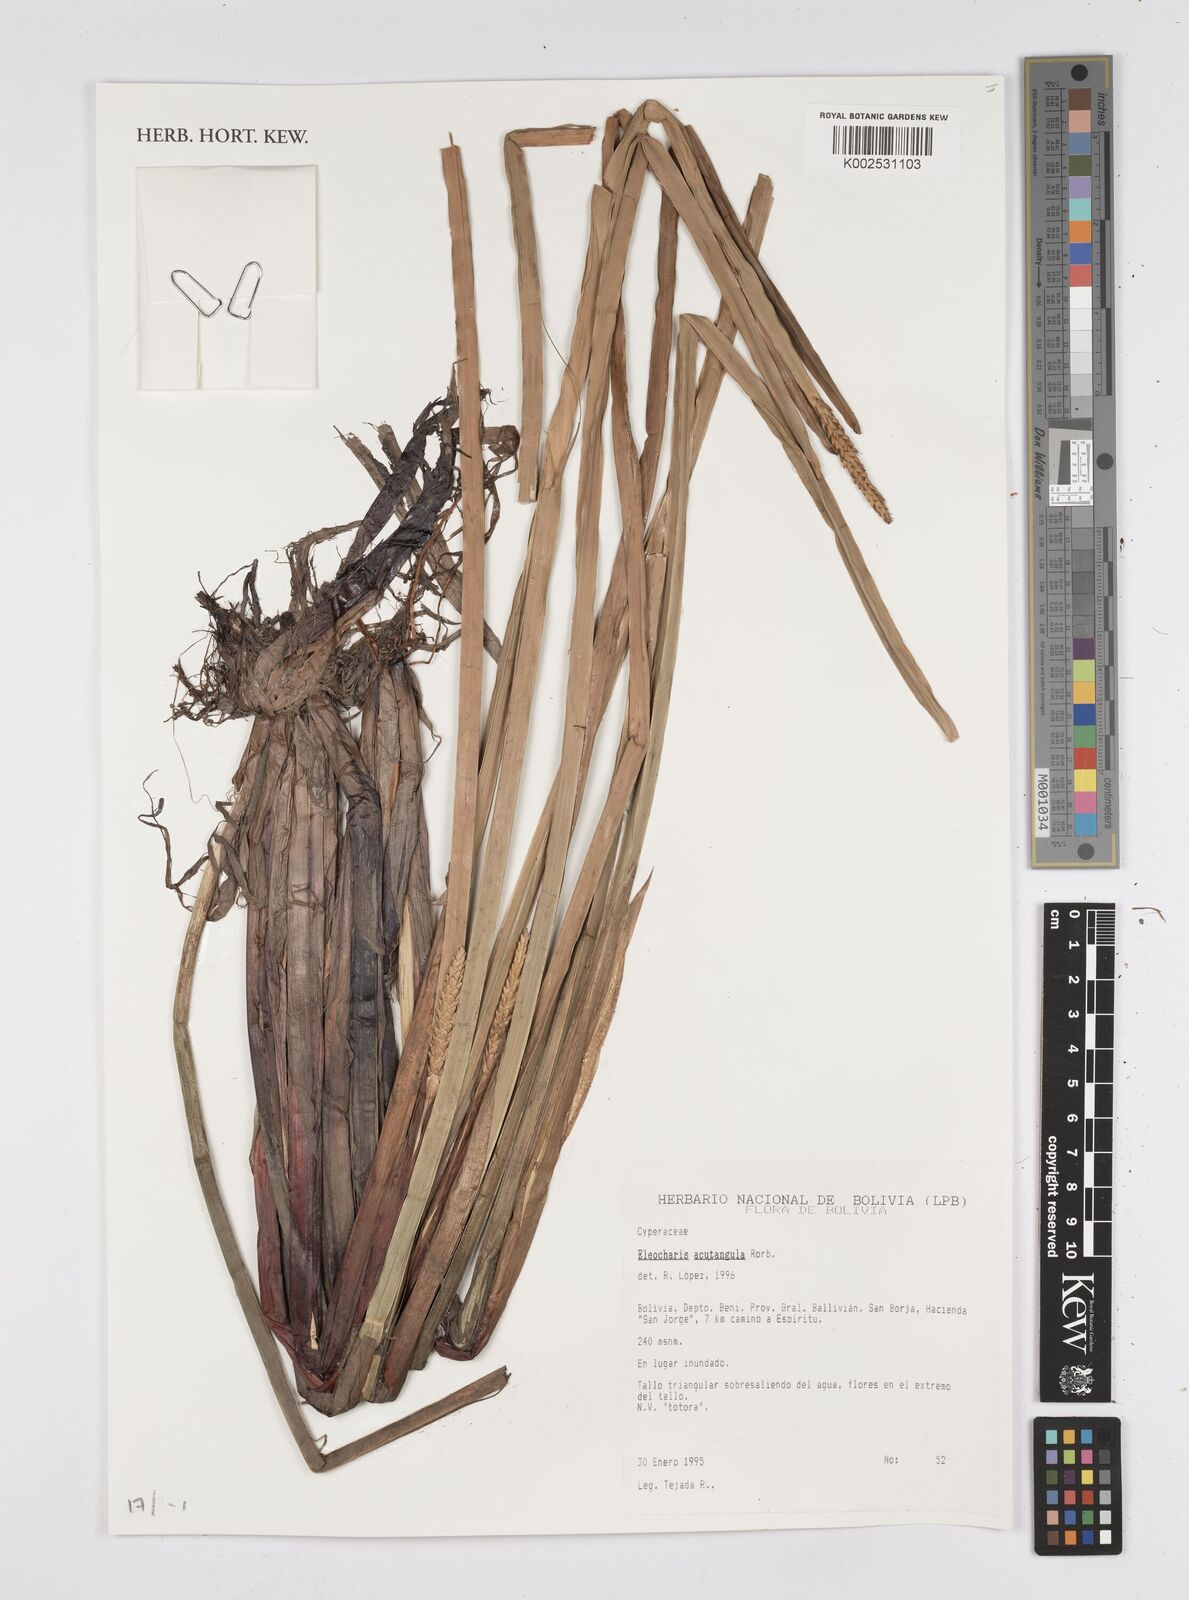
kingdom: Plantae
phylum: Tracheophyta
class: Liliopsida
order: Poales
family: Cyperaceae
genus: Eleocharis
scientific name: Eleocharis acutangula
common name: Acute spikerush
